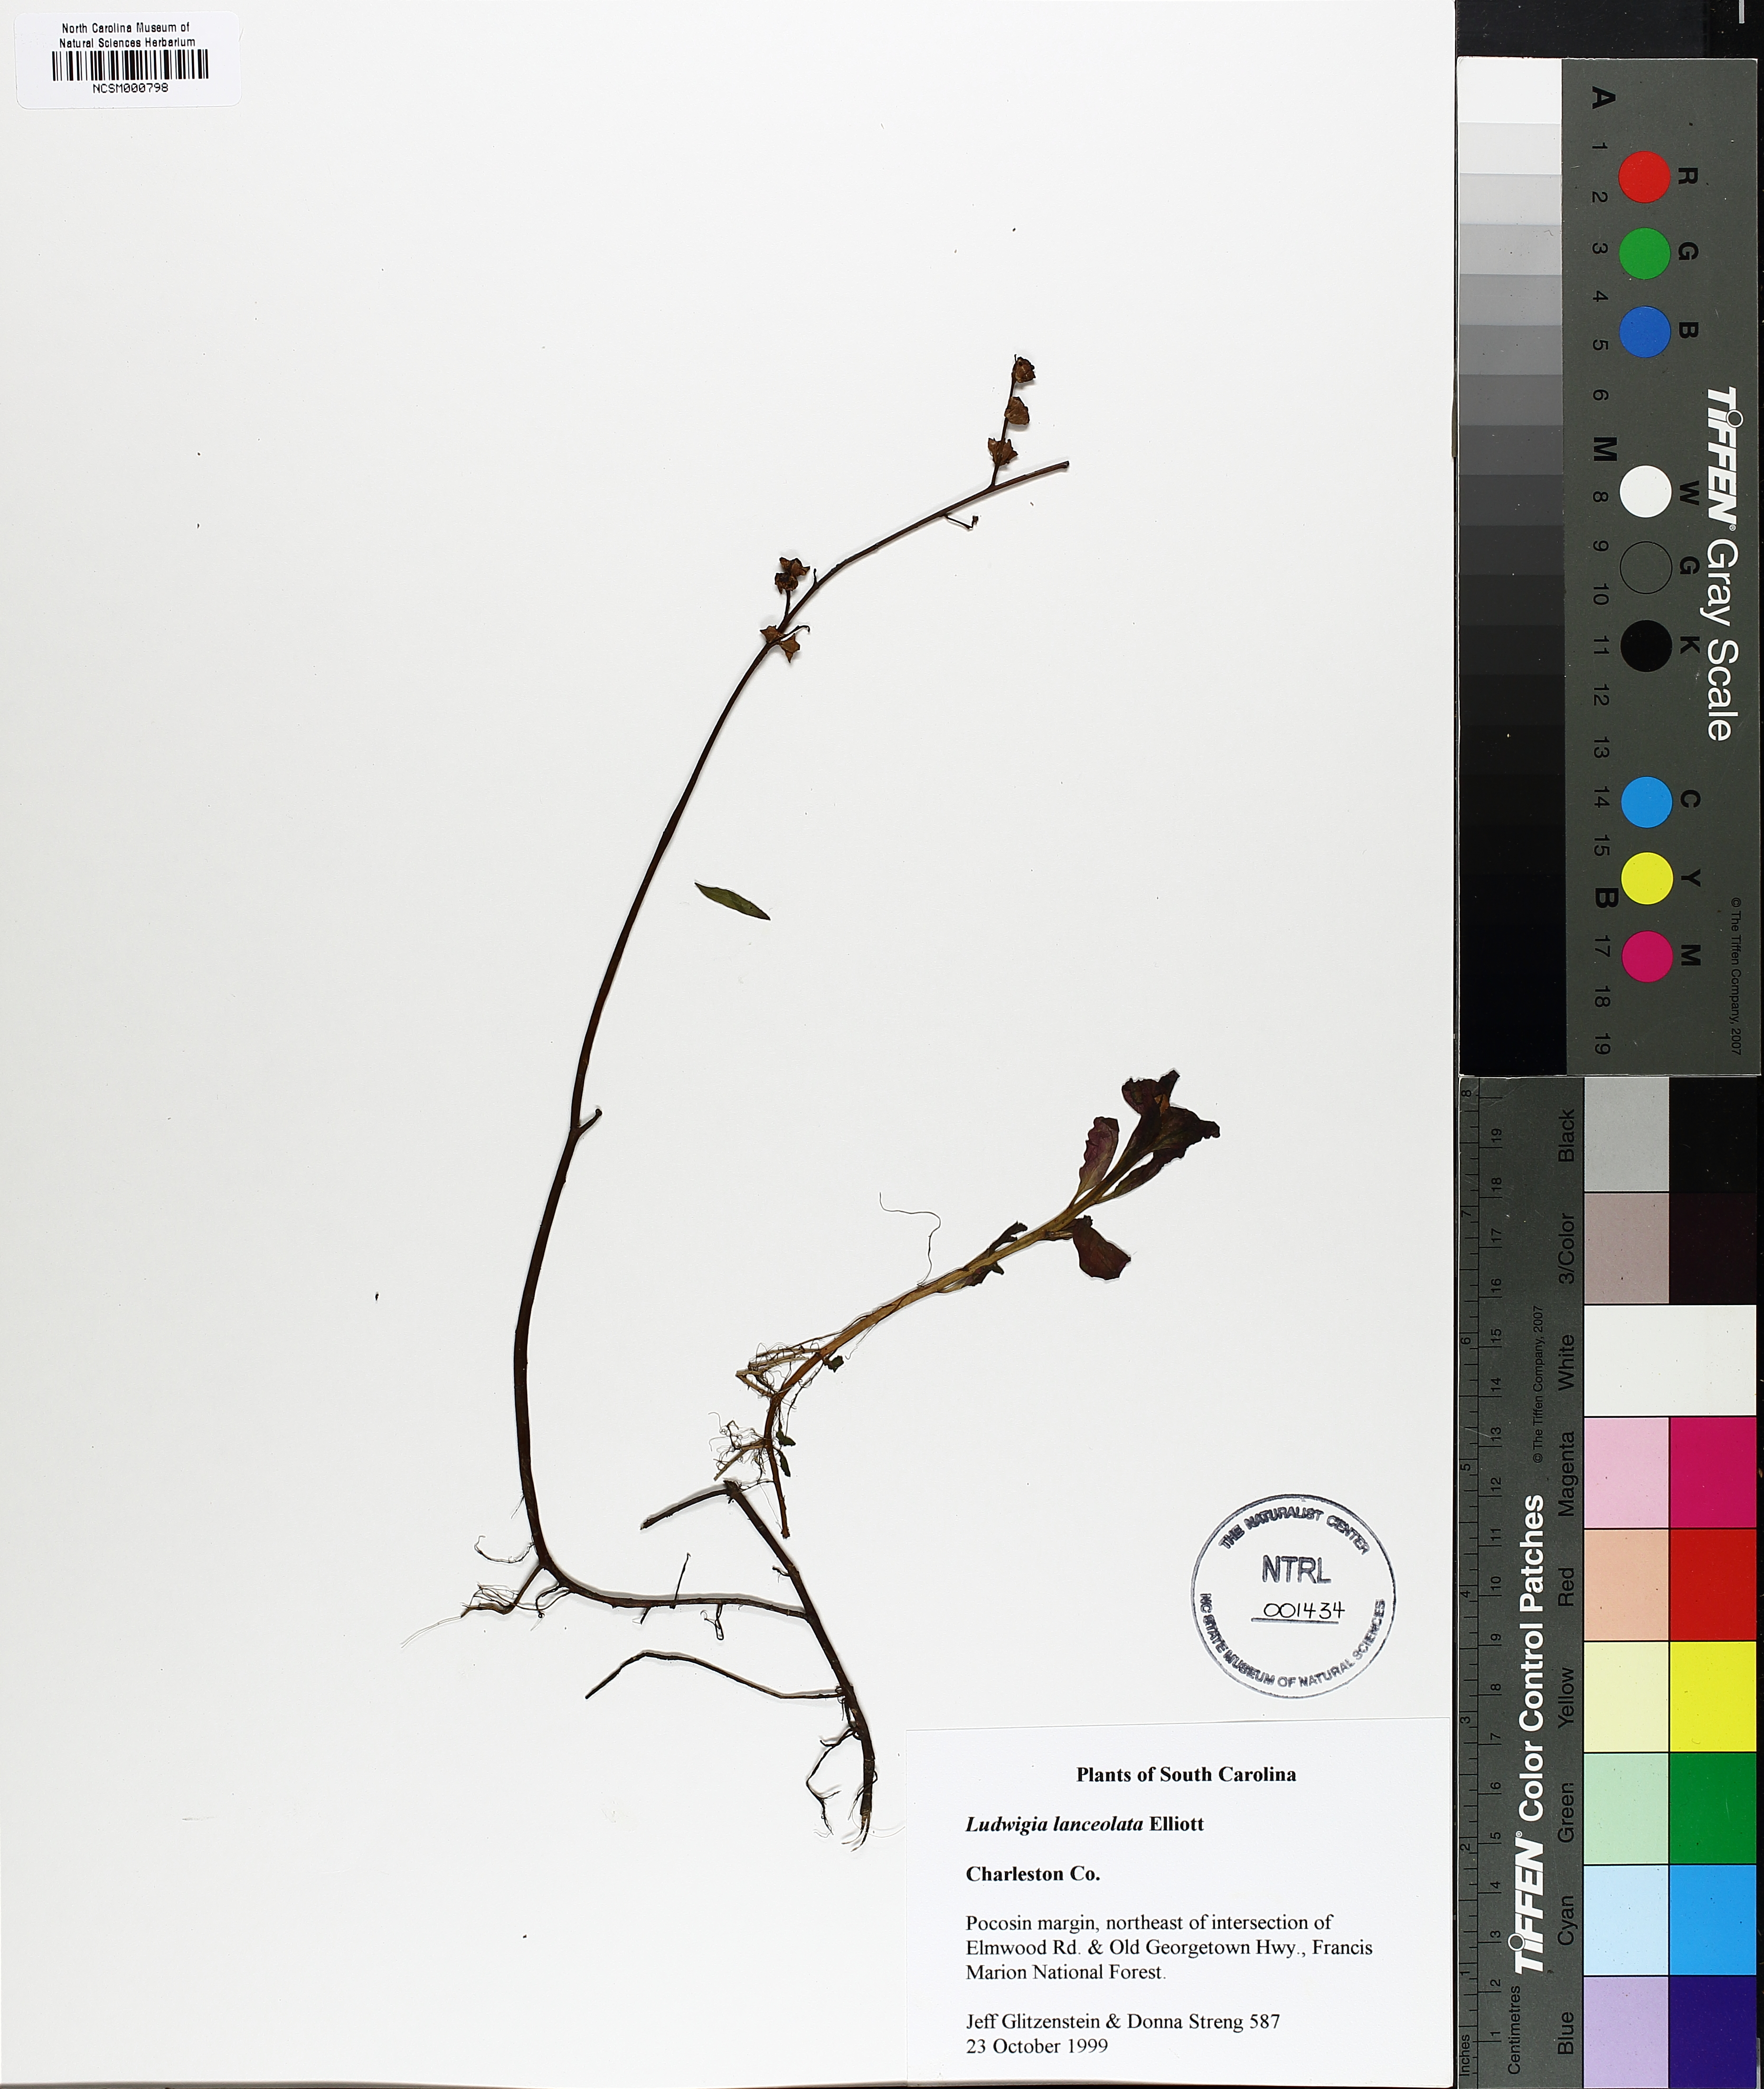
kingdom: Plantae
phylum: Tracheophyta
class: Magnoliopsida
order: Myrtales
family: Onagraceae
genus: Ludwigia
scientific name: Ludwigia lanceolata
